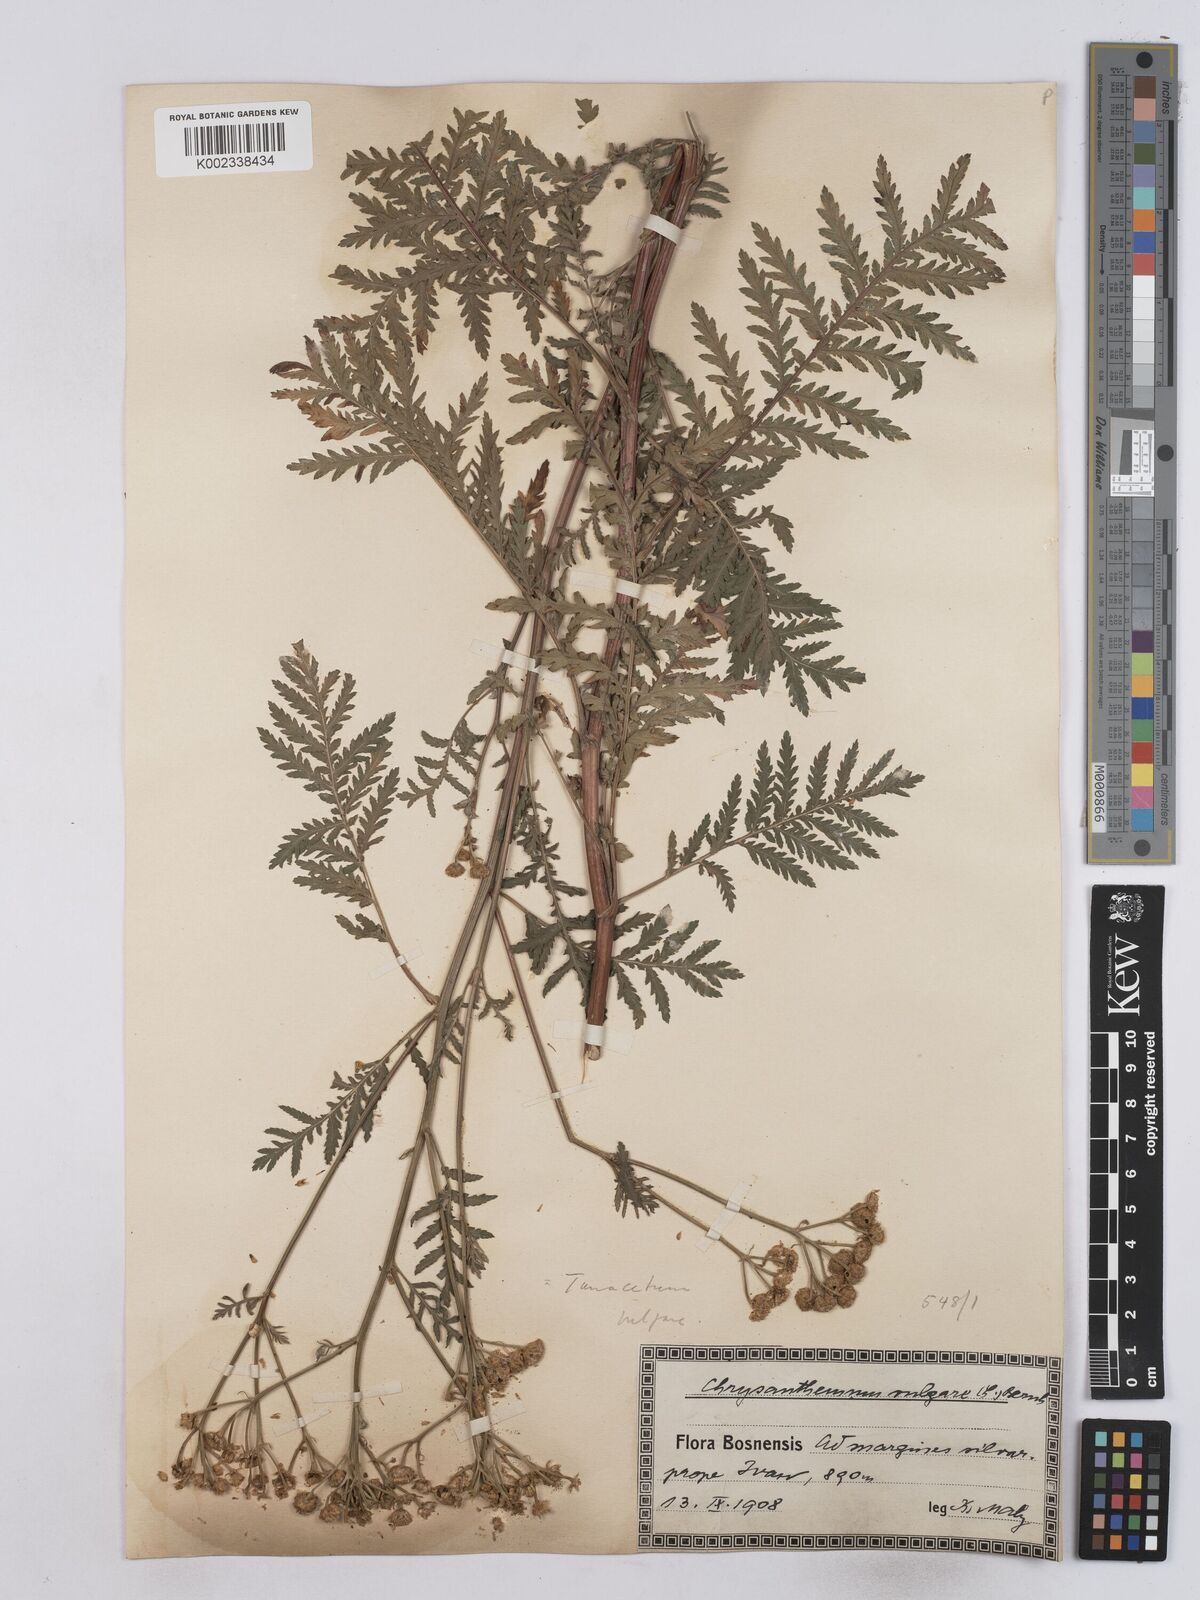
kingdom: Plantae
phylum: Tracheophyta
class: Magnoliopsida
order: Asterales
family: Asteraceae
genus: Tanacetum
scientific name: Tanacetum vulgare
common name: Common tansy
